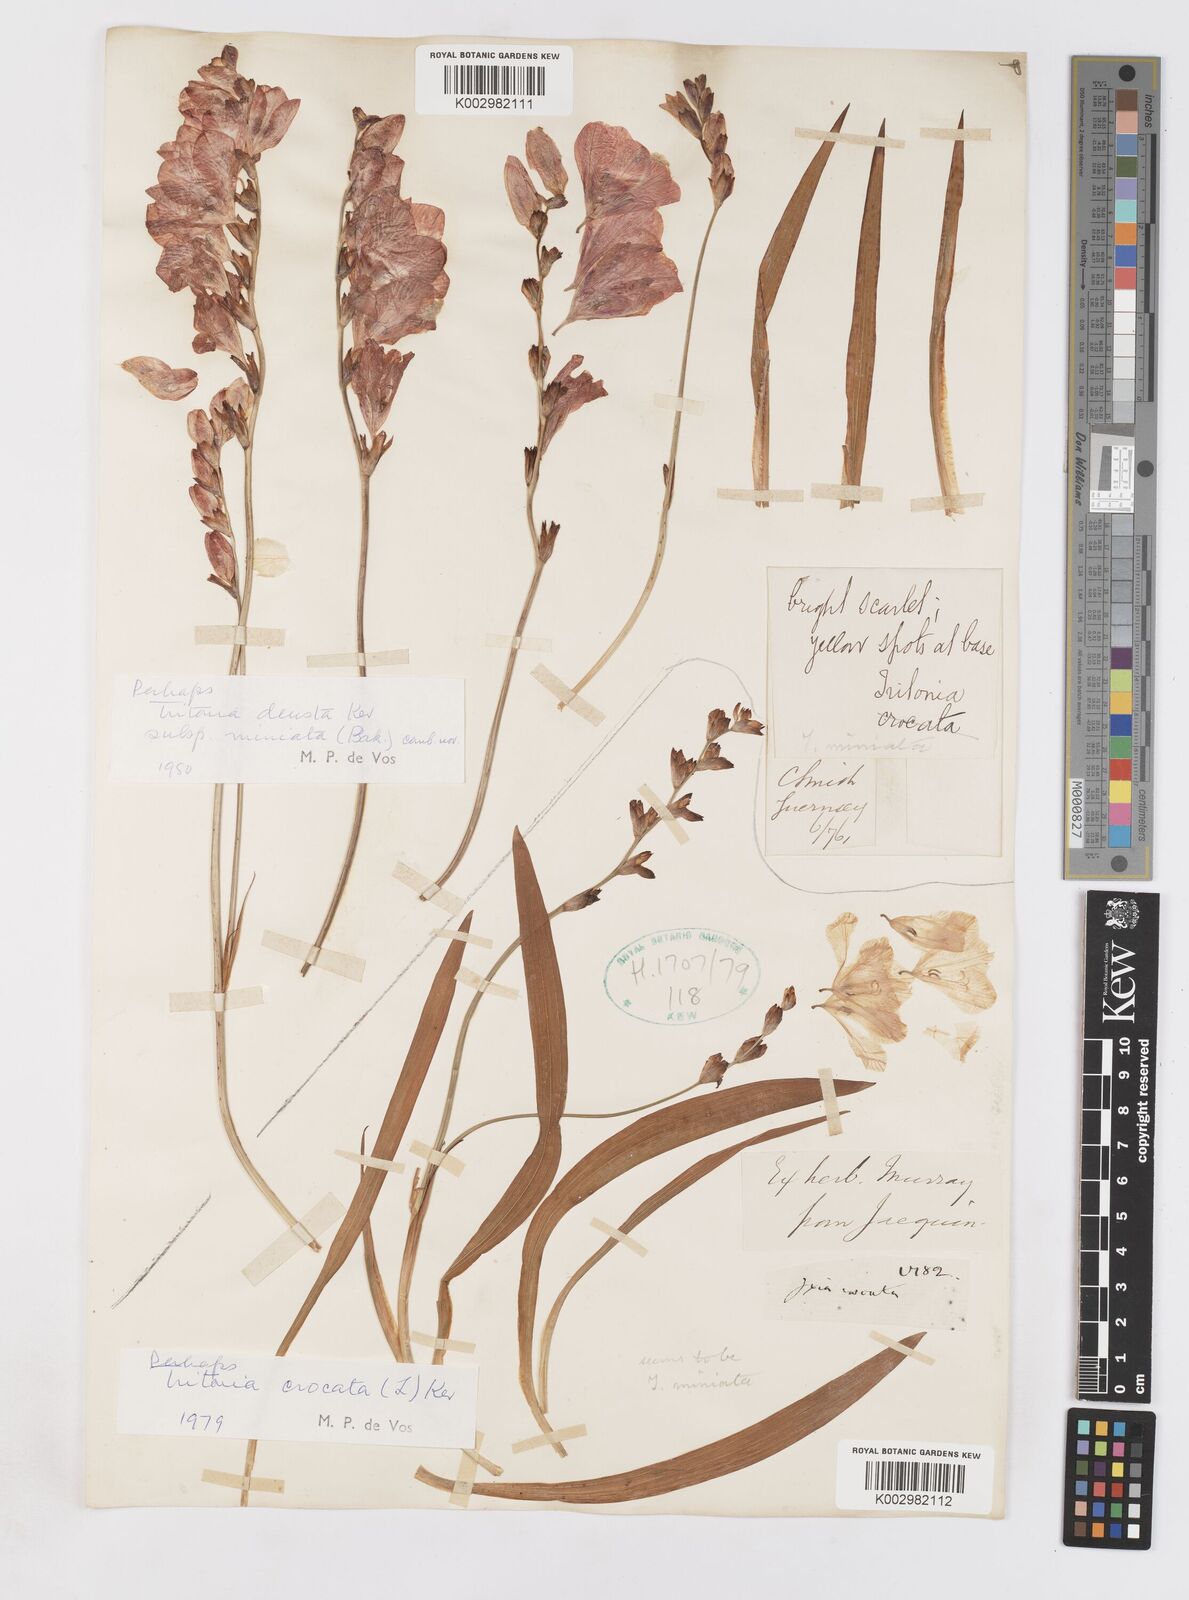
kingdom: Plantae
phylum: Tracheophyta
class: Liliopsida
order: Asparagales
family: Iridaceae
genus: Tritonia
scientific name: Tritonia deusta
